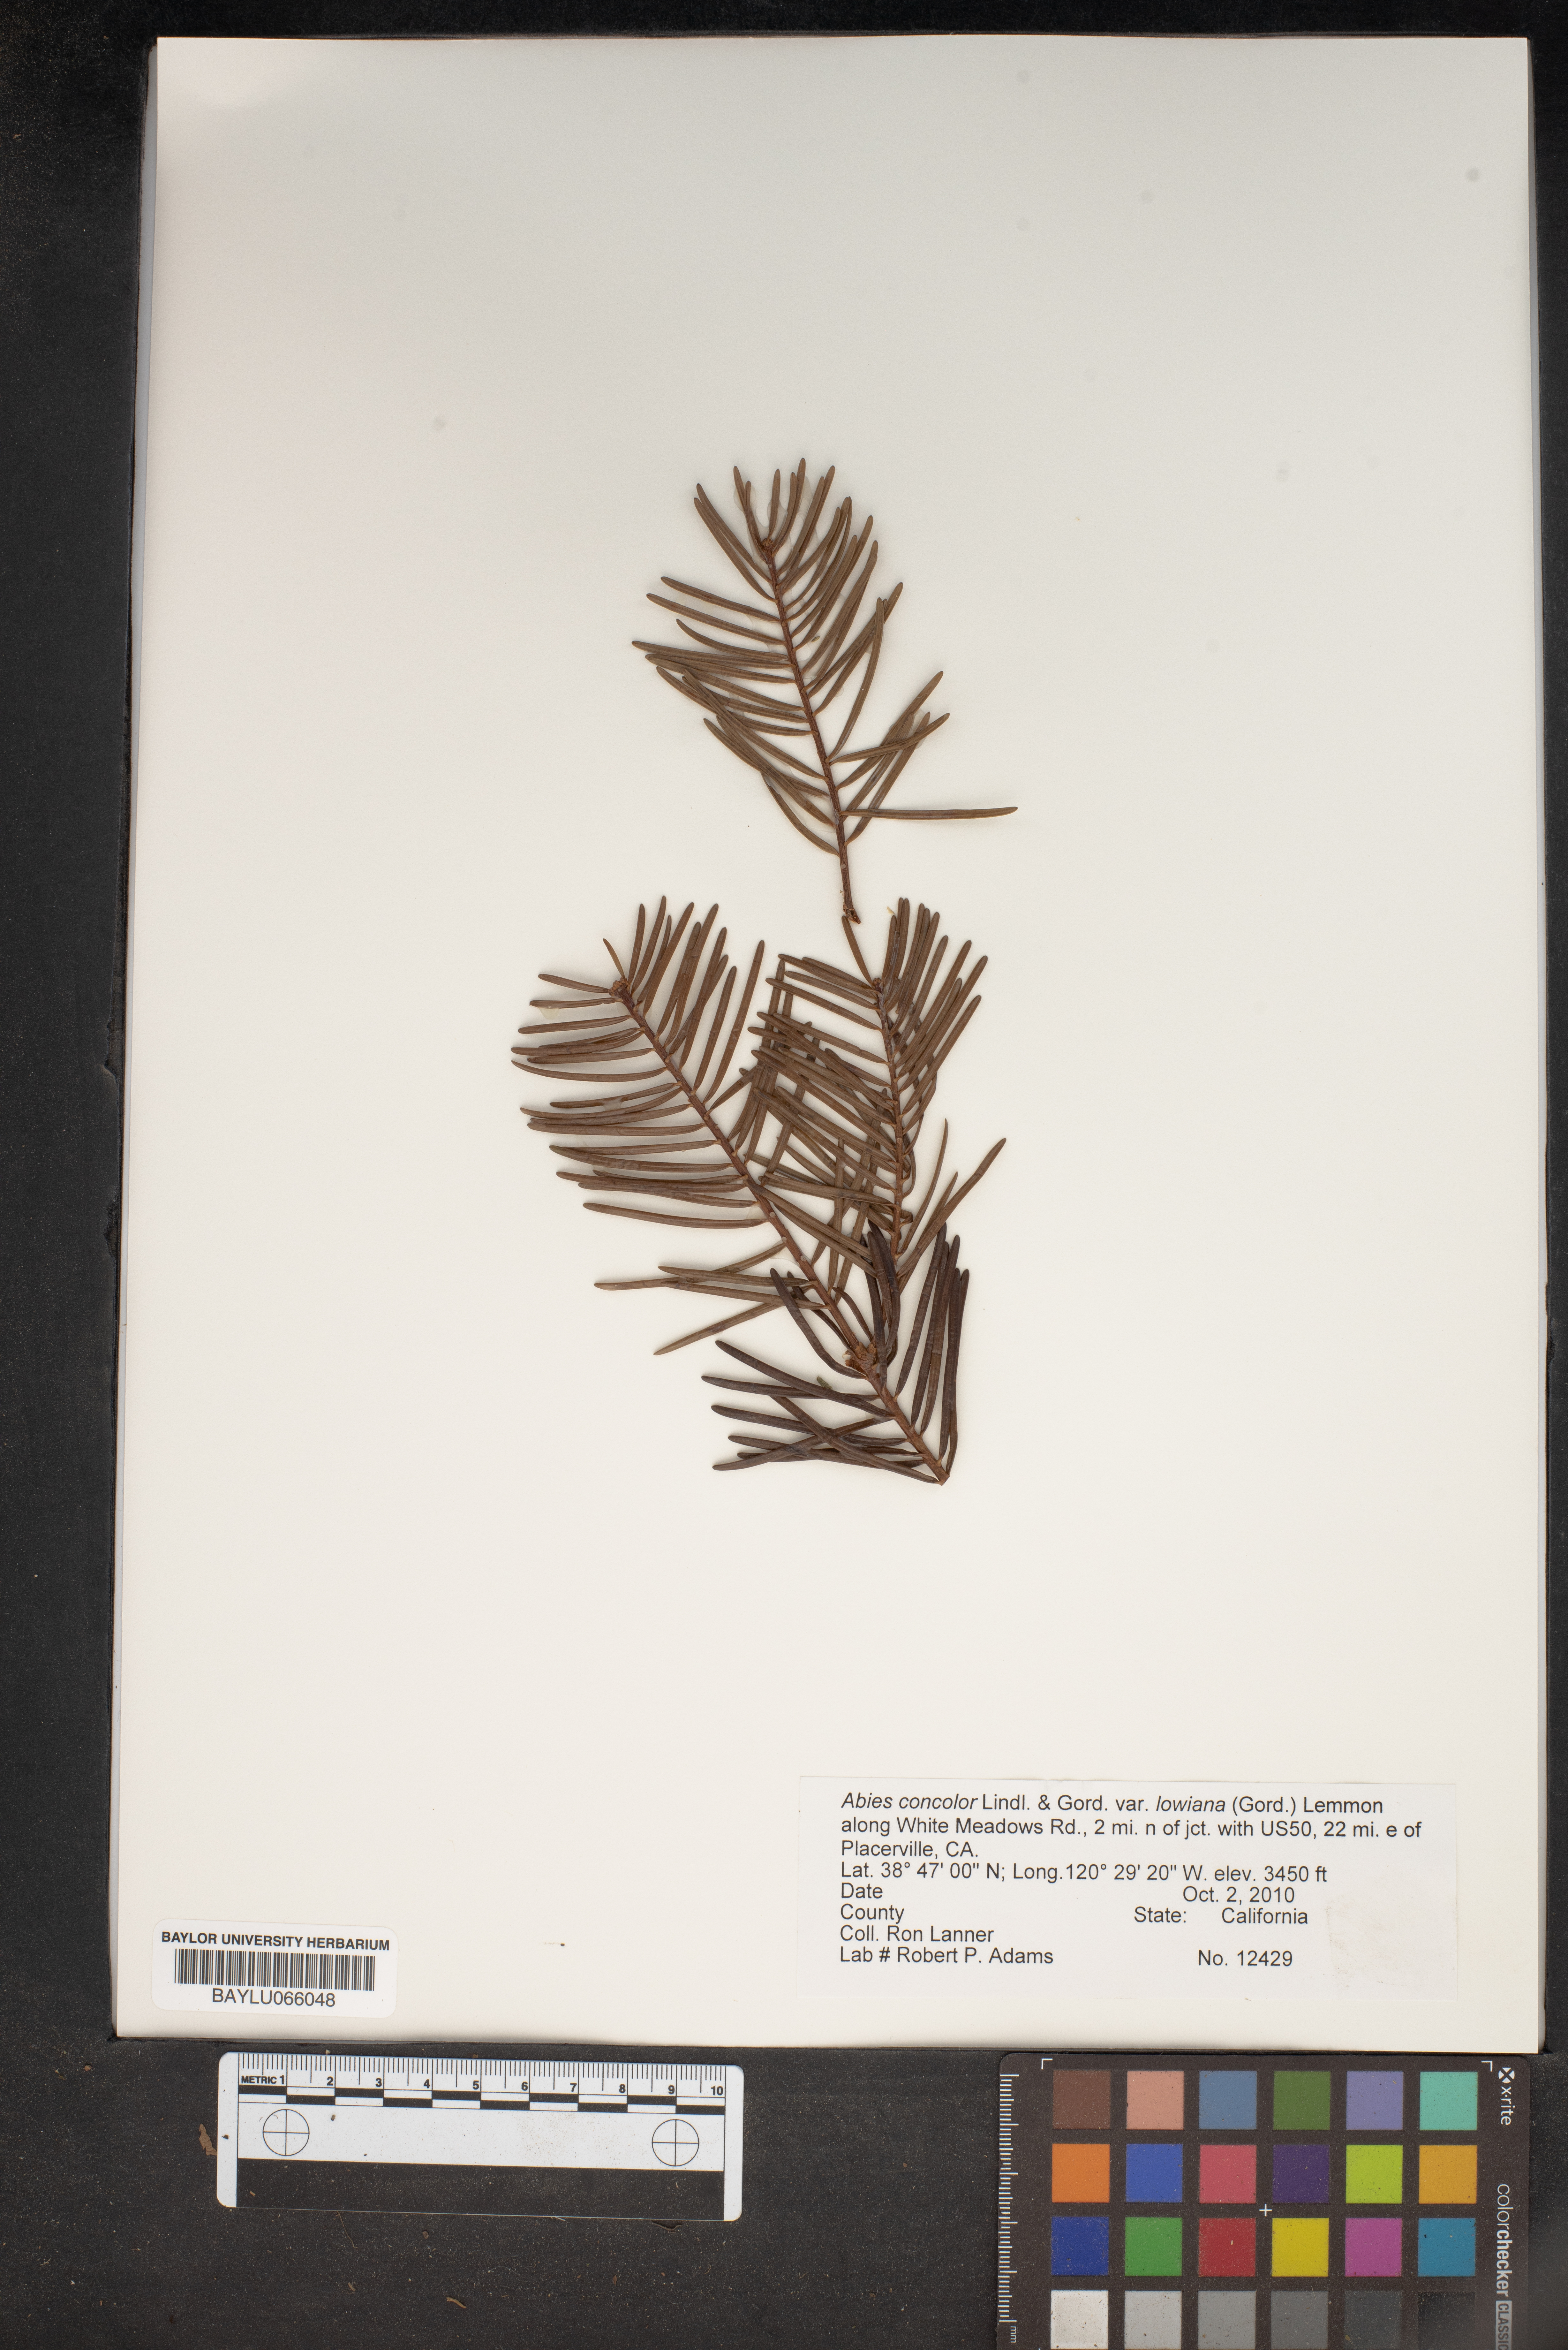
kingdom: Plantae
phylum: Tracheophyta
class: Pinopsida
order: Pinales
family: Pinaceae
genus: Abies
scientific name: Abies concolor
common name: Colorado fir
